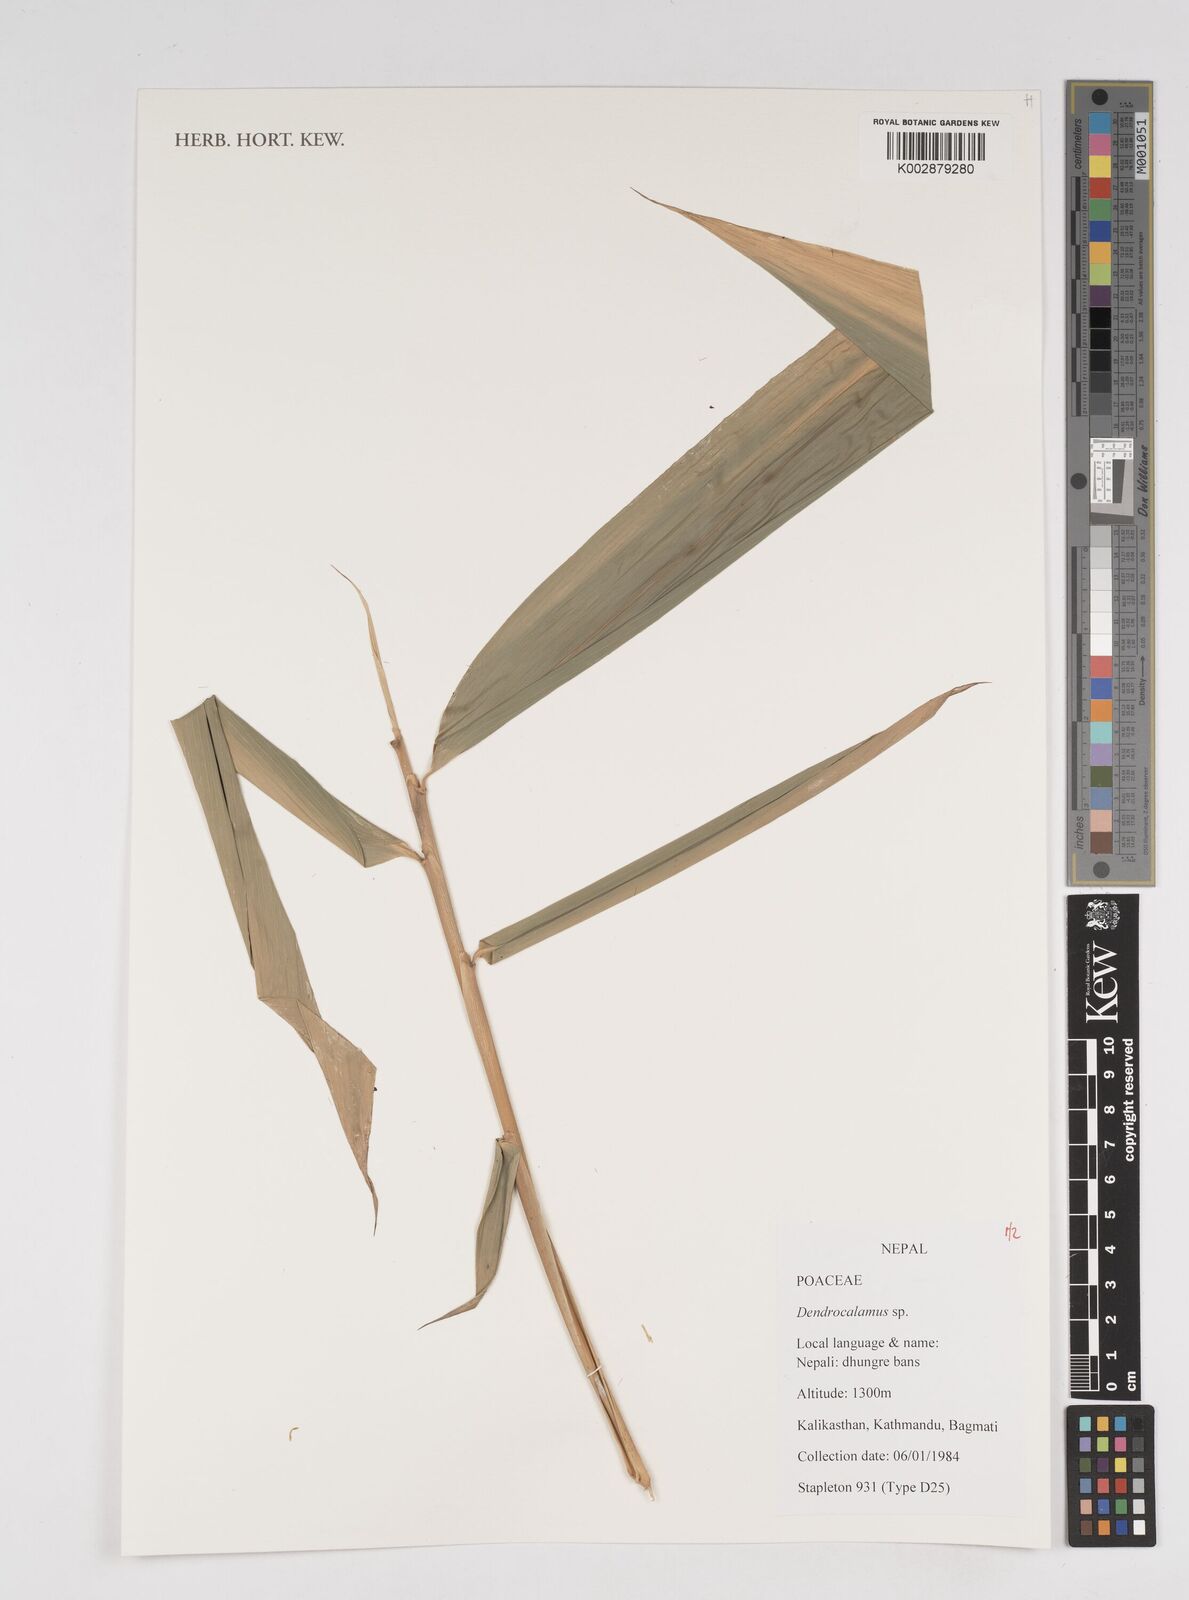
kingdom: Plantae
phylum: Tracheophyta
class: Liliopsida
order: Poales
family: Poaceae
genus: Dendrocalamus
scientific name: Dendrocalamus
